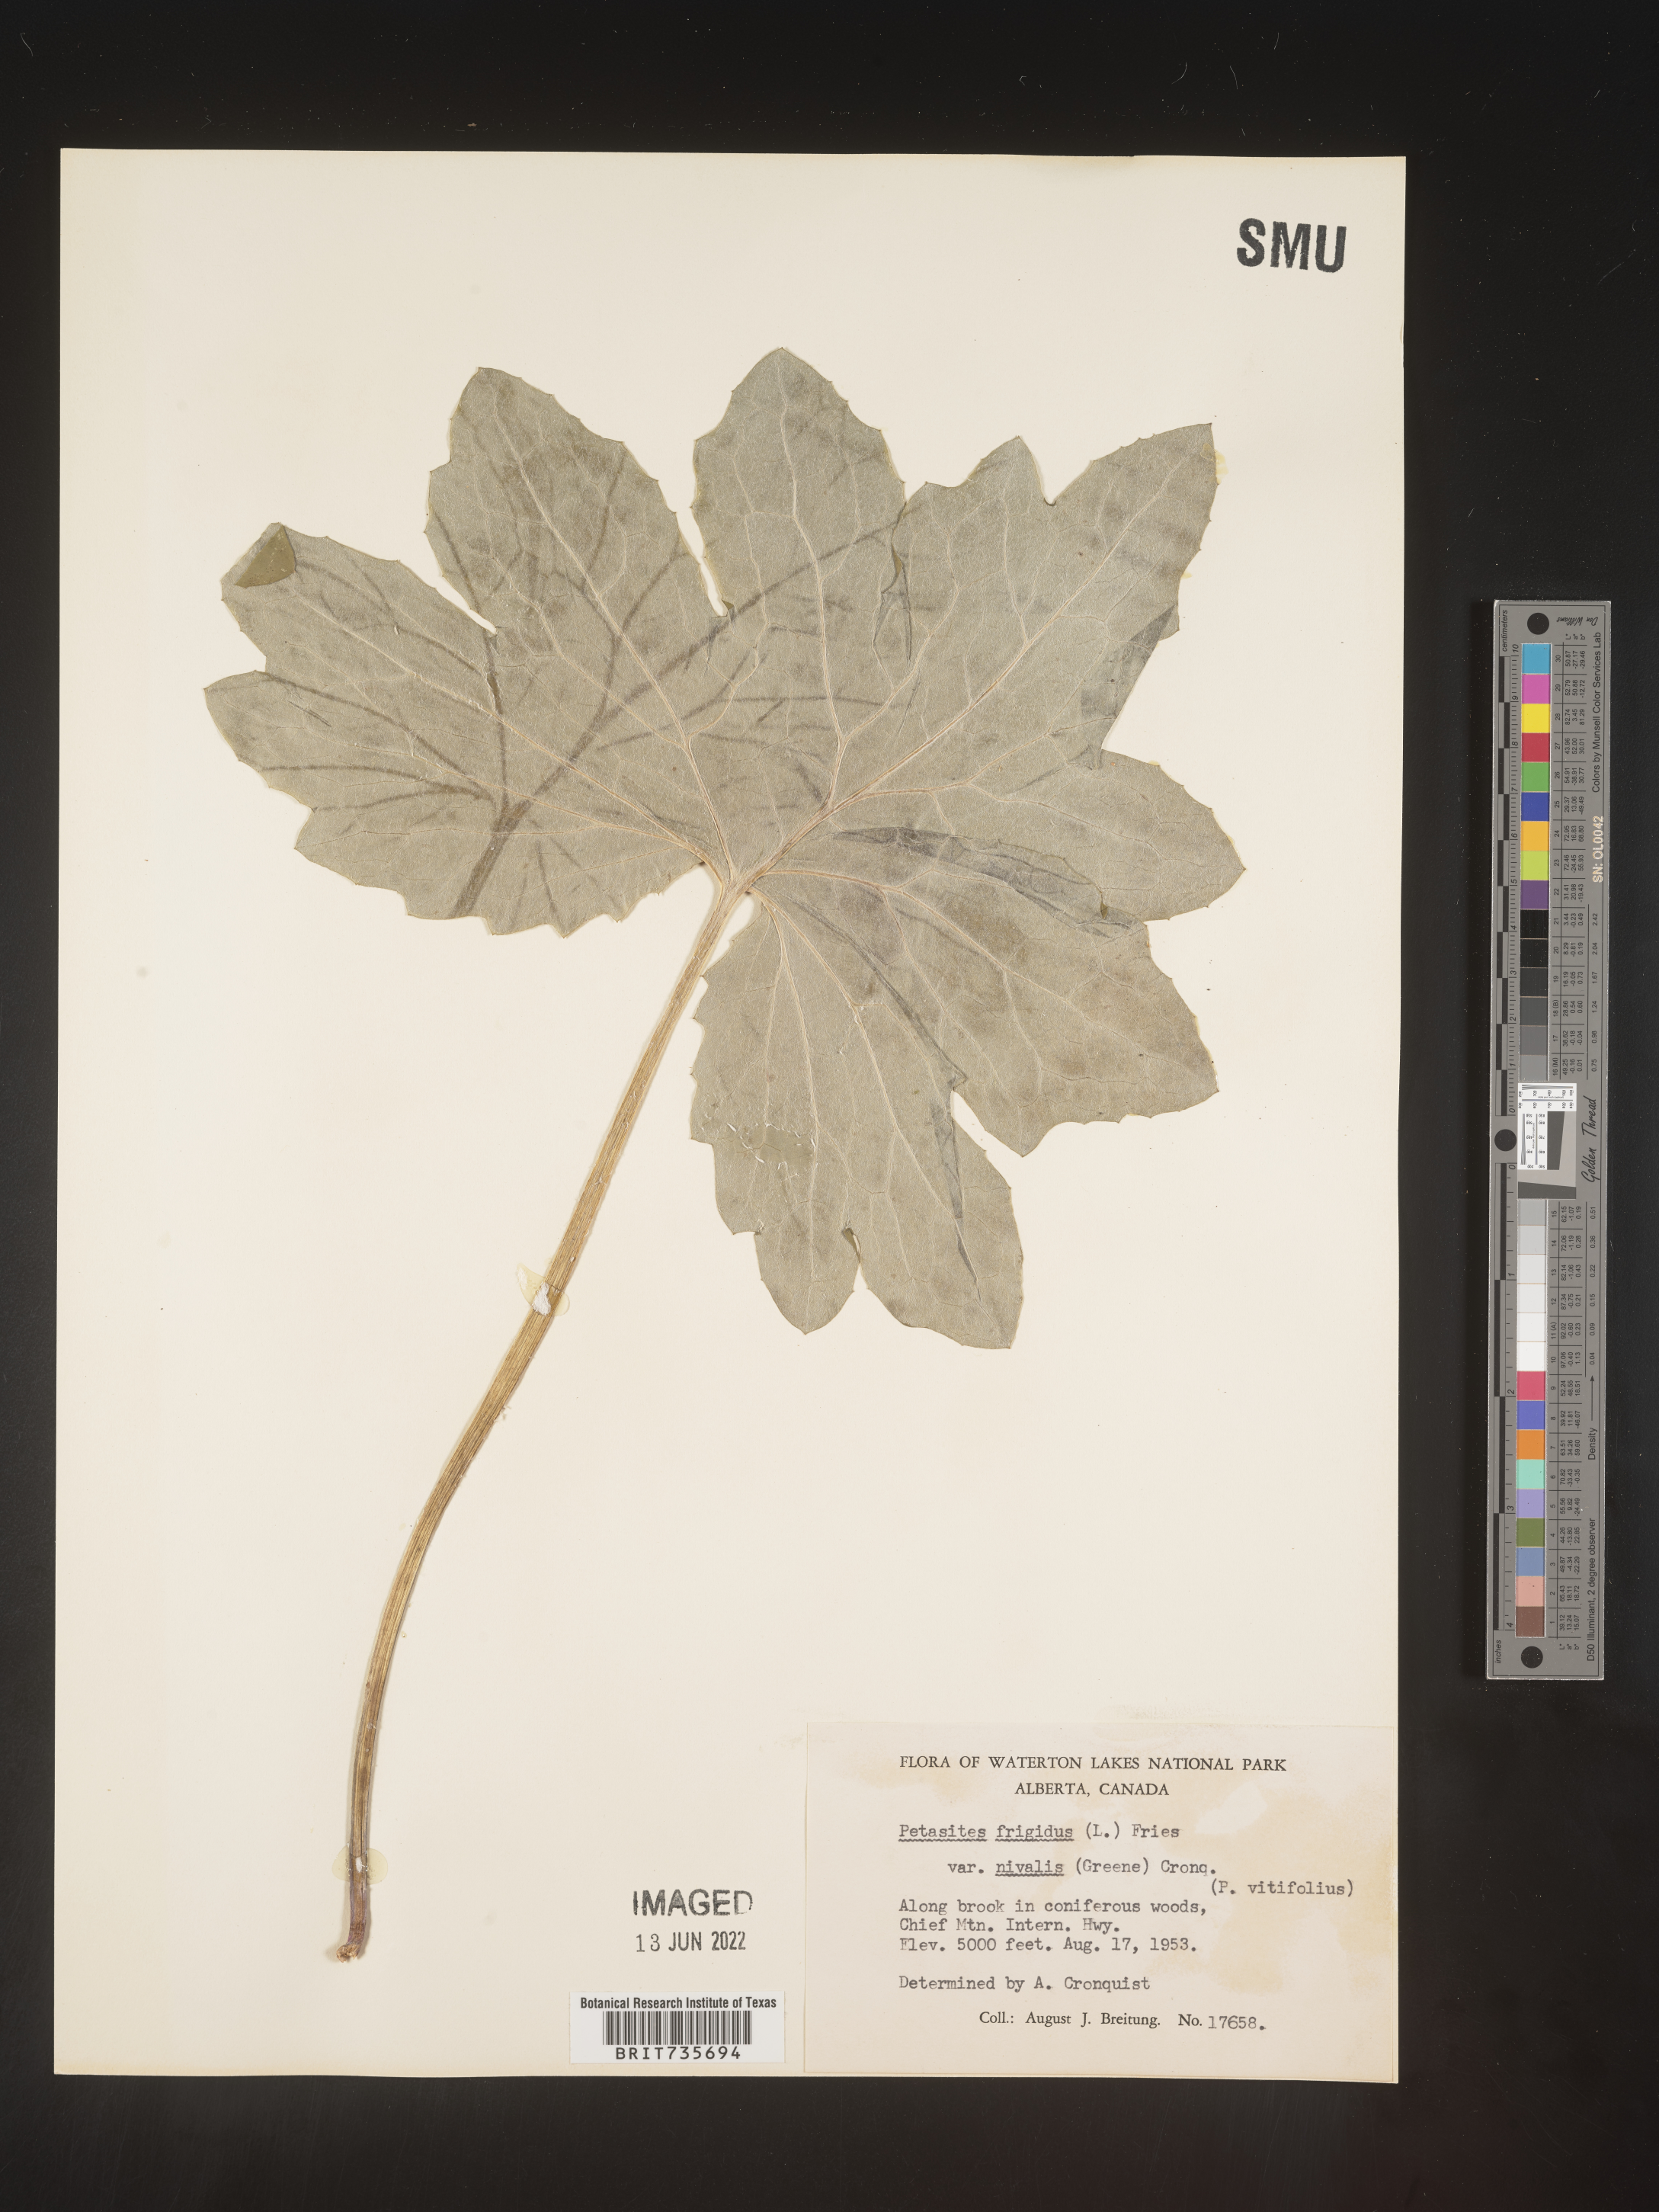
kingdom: Plantae
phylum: Tracheophyta
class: Magnoliopsida
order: Asterales
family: Asteraceae
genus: Petasites
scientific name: Petasites frigidus
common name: Arctic butterbur
